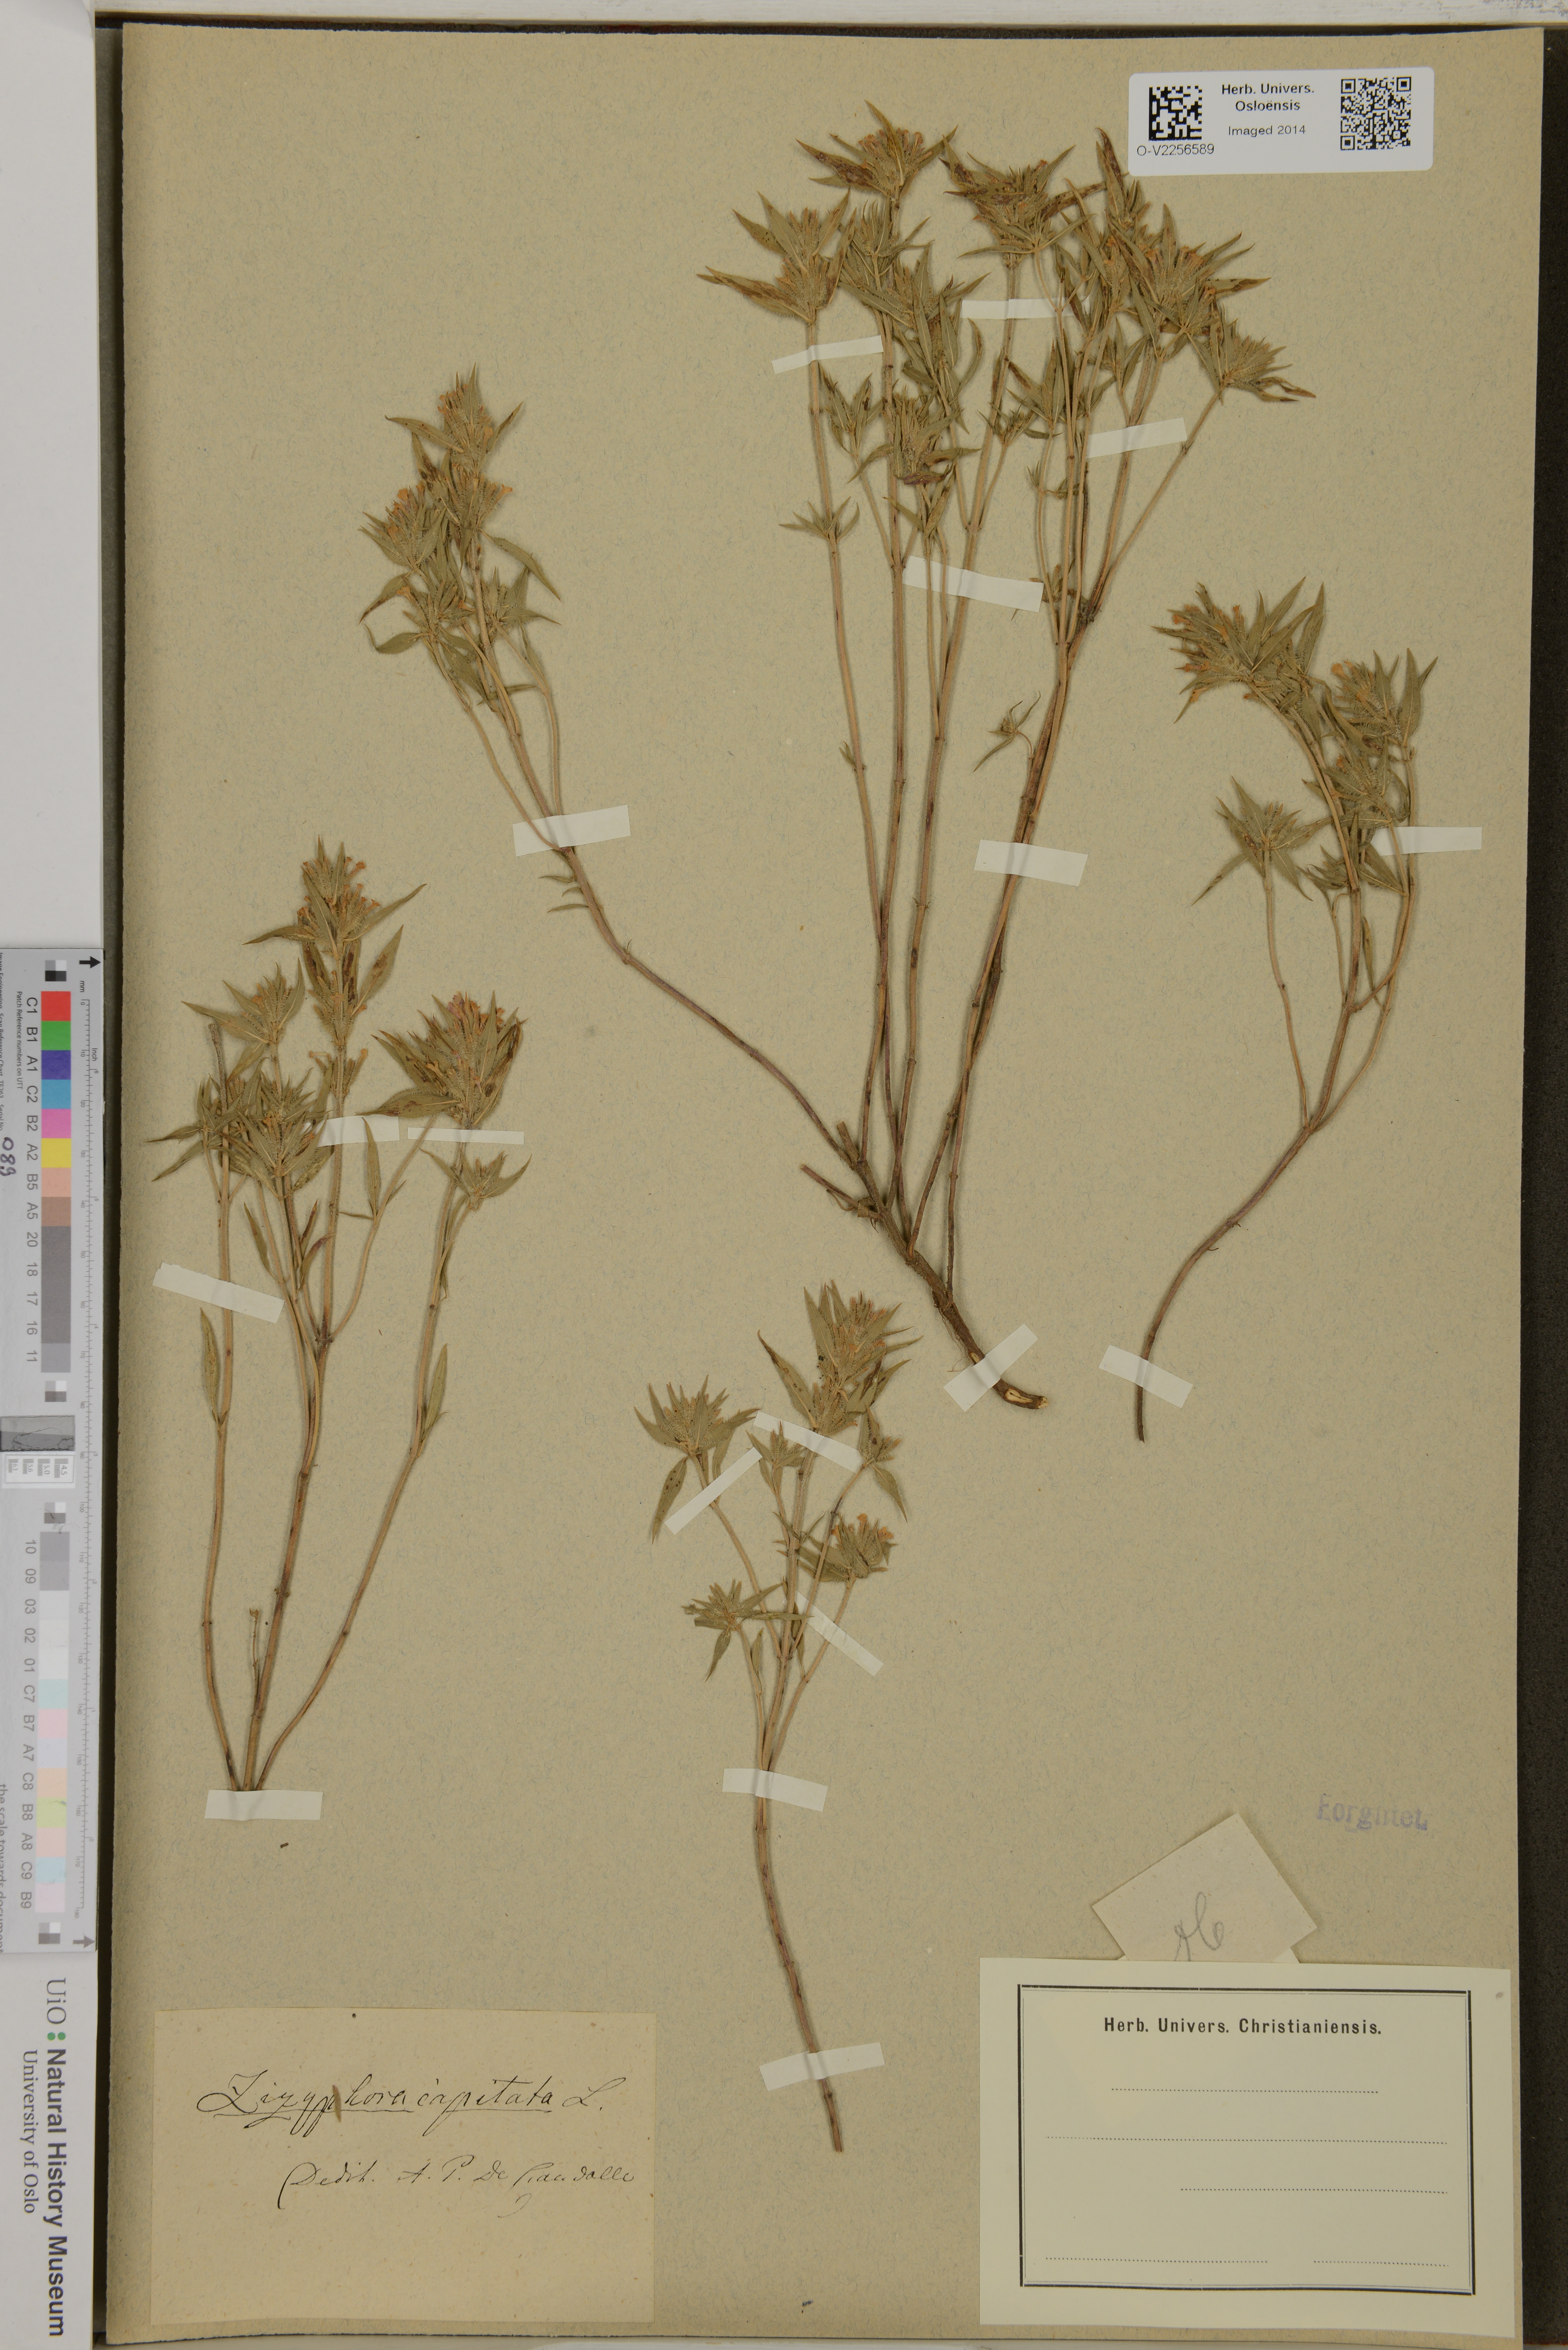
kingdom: Plantae
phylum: Tracheophyta
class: Magnoliopsida
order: Lamiales
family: Lamiaceae
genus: Ziziphora
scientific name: Ziziphora capitata
